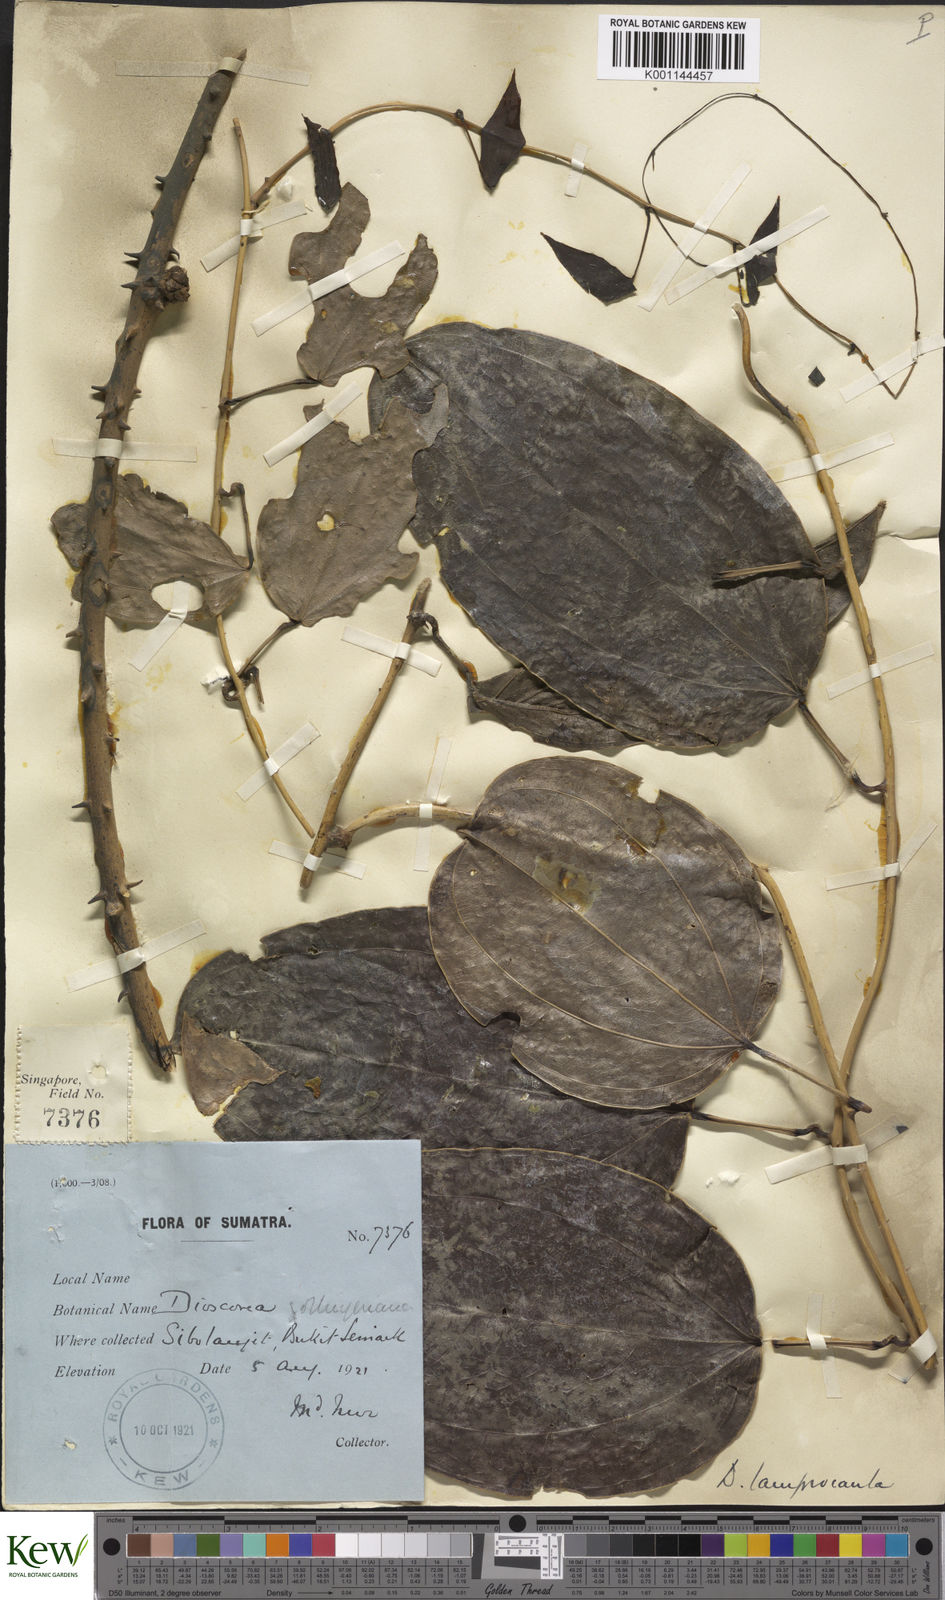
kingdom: Plantae
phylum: Tracheophyta
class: Liliopsida
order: Dioscoreales
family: Dioscoreaceae
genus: Dioscorea
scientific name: Dioscorea lamprocaula
